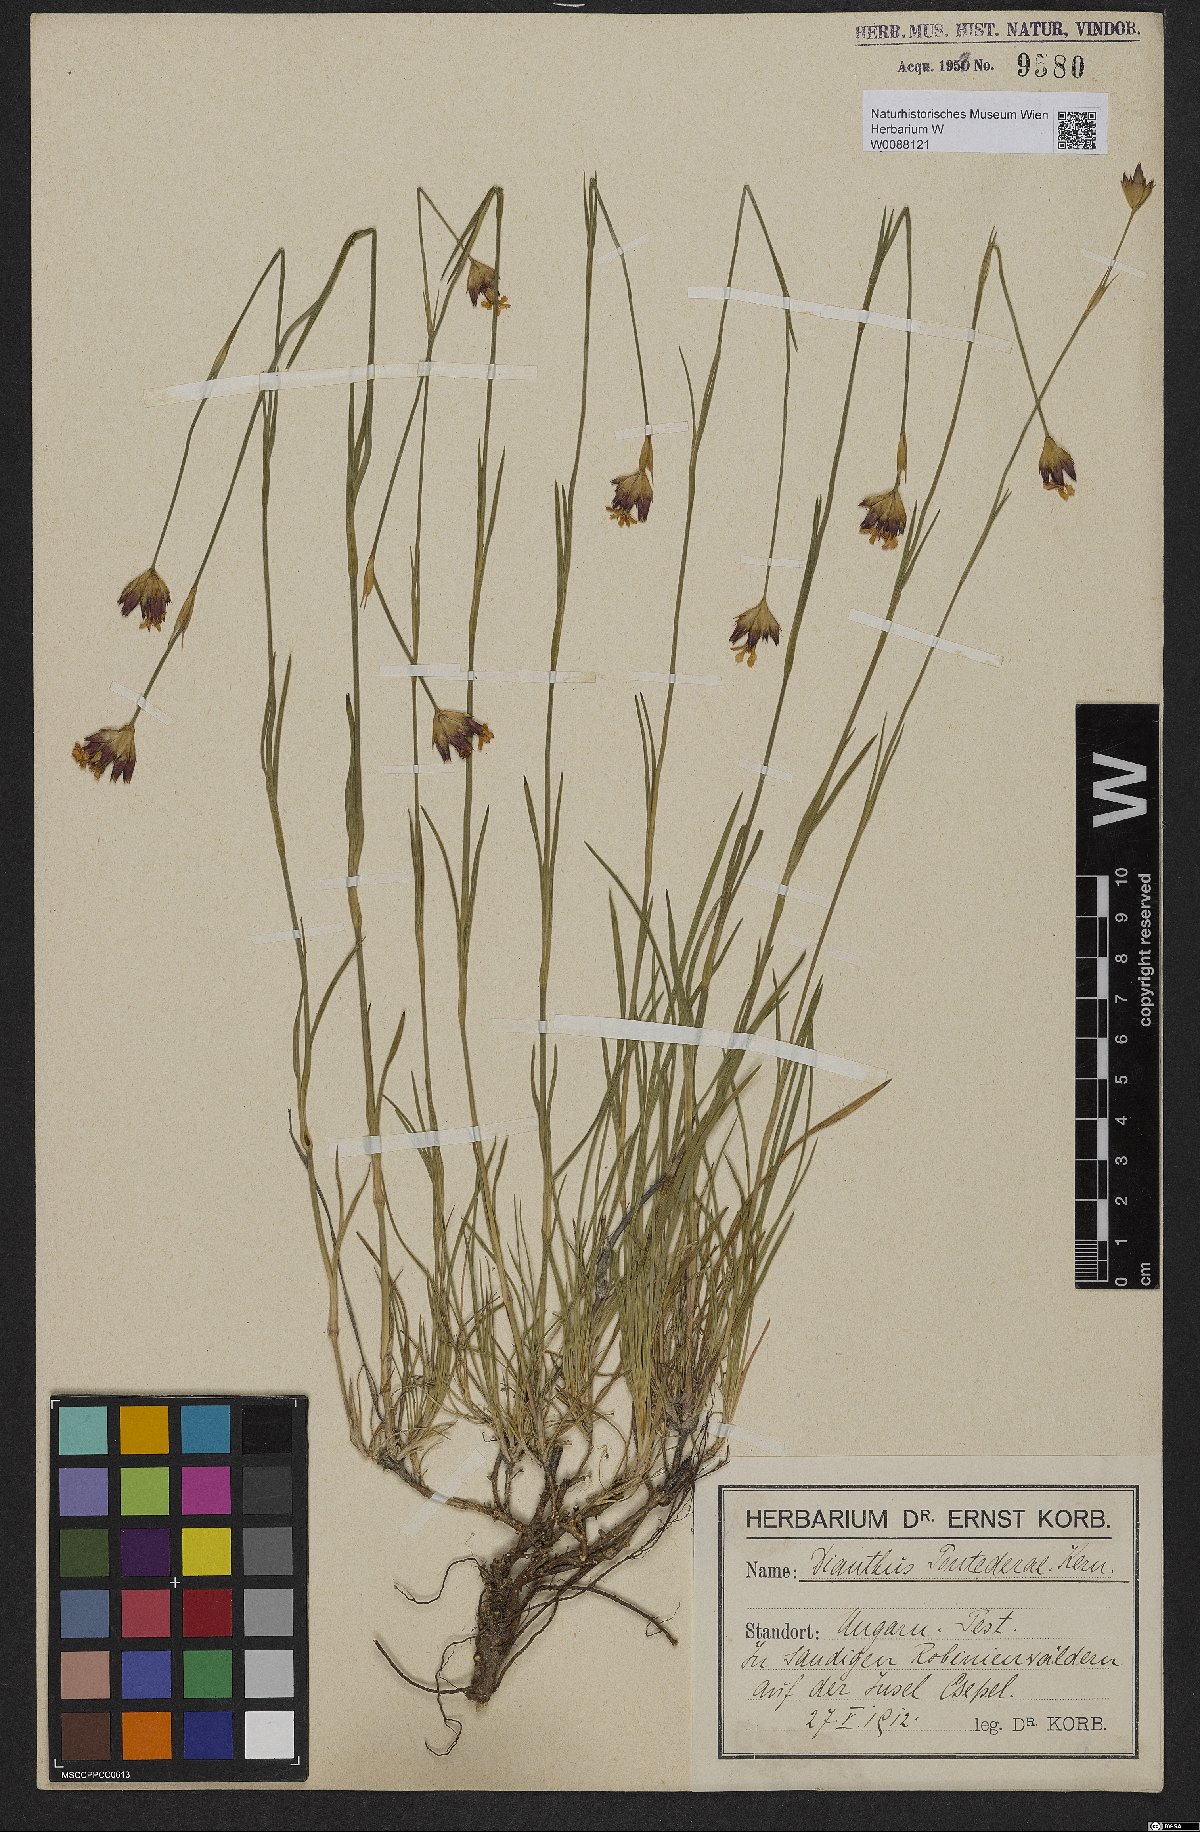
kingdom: Plantae
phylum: Tracheophyta
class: Magnoliopsida
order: Caryophyllales
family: Caryophyllaceae
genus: Dianthus
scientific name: Dianthus pontederae
